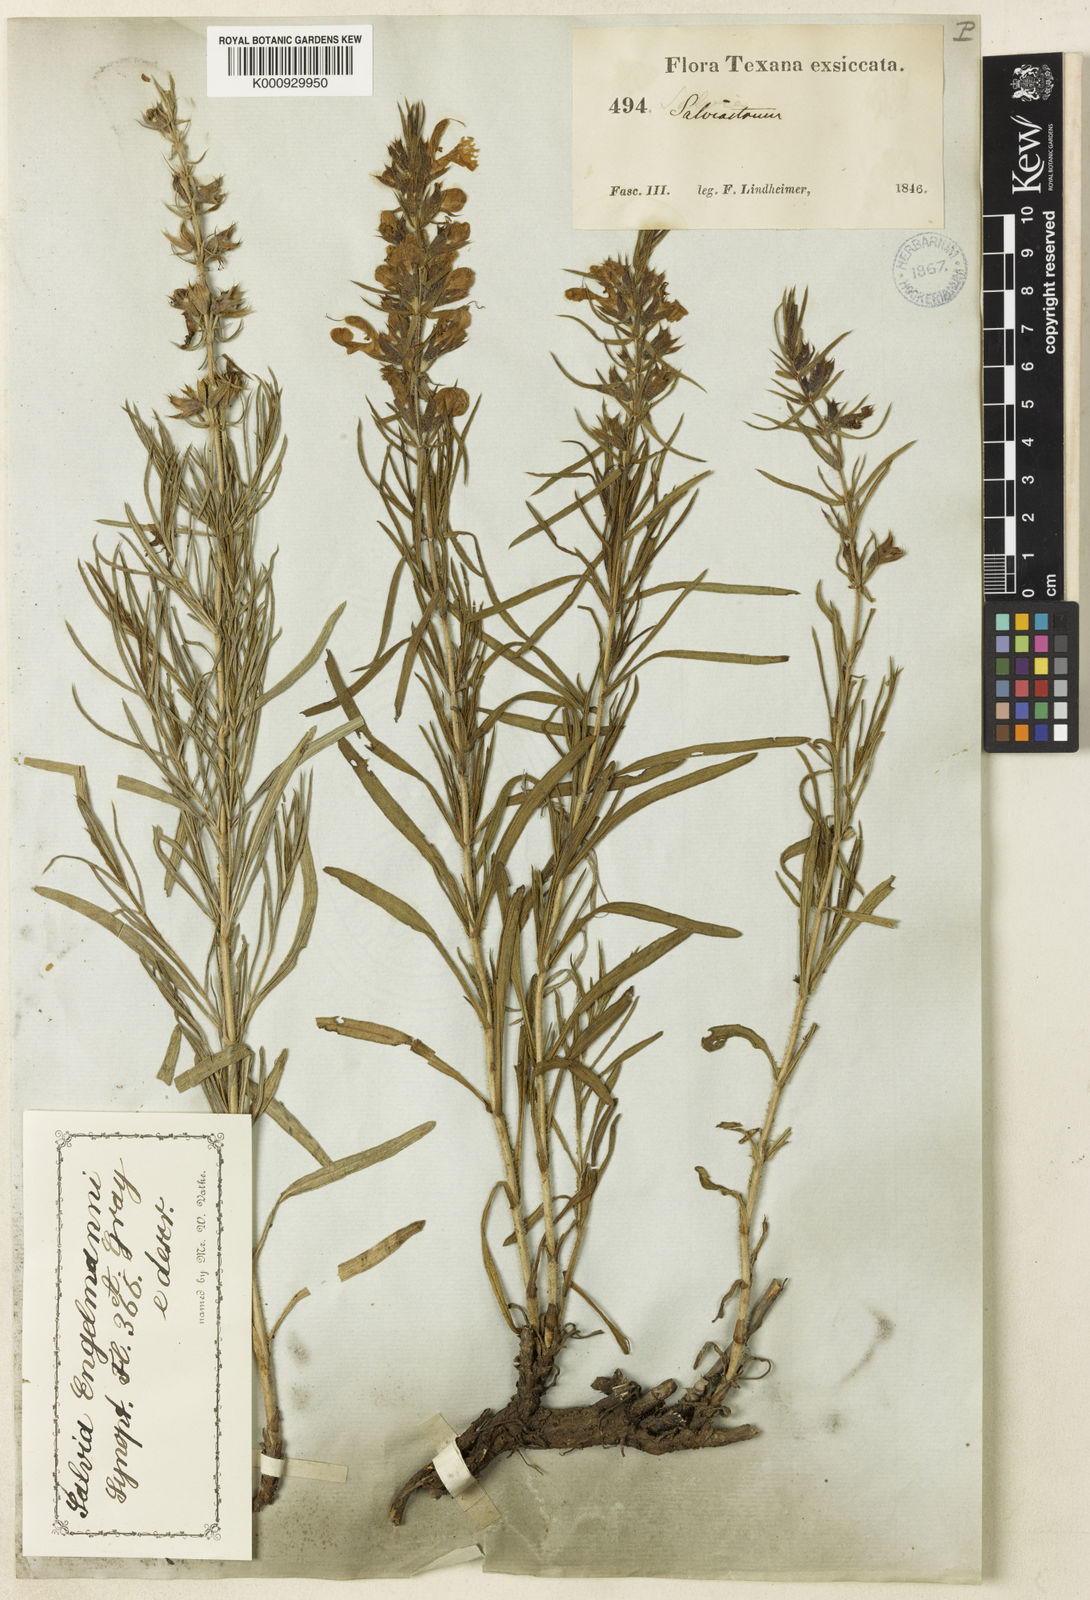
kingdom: Plantae
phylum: Tracheophyta
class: Magnoliopsida
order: Lamiales
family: Lamiaceae
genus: Salvia
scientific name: Salvia engelmannii
